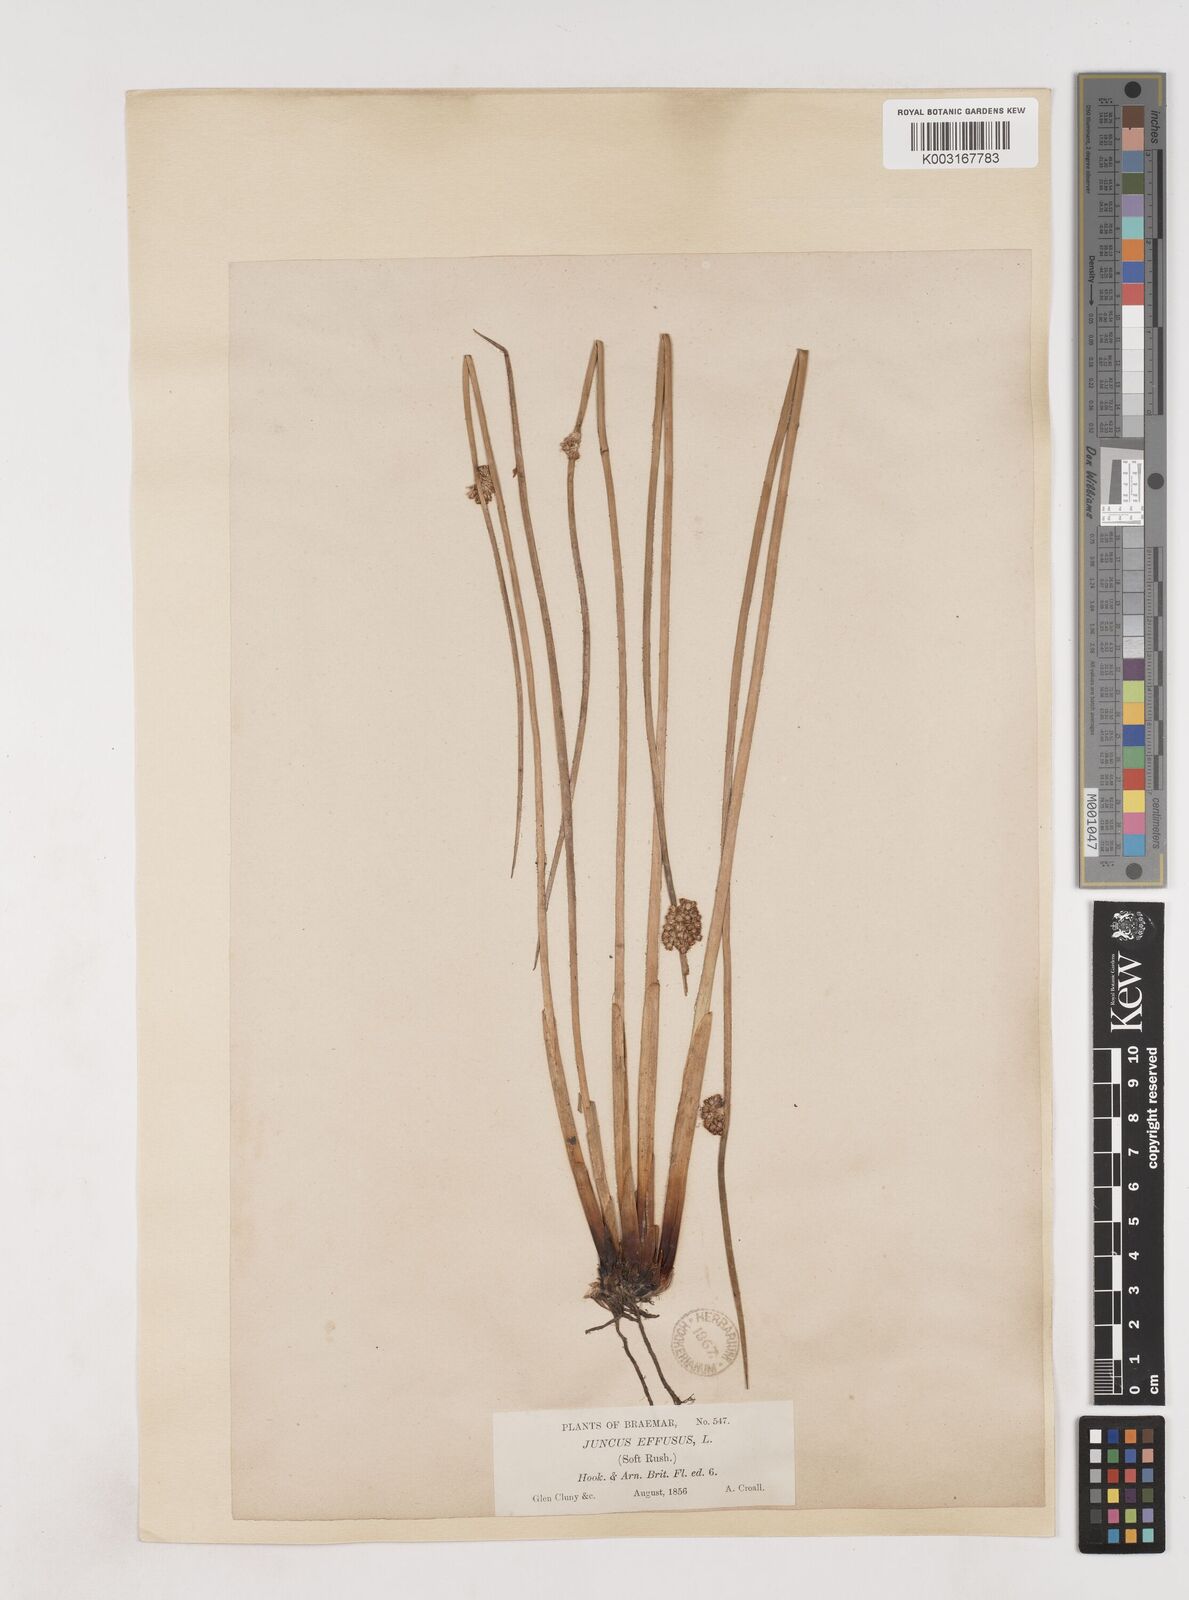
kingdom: Plantae
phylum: Tracheophyta
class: Liliopsida
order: Poales
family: Juncaceae
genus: Juncus
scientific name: Juncus effusus
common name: Soft rush
